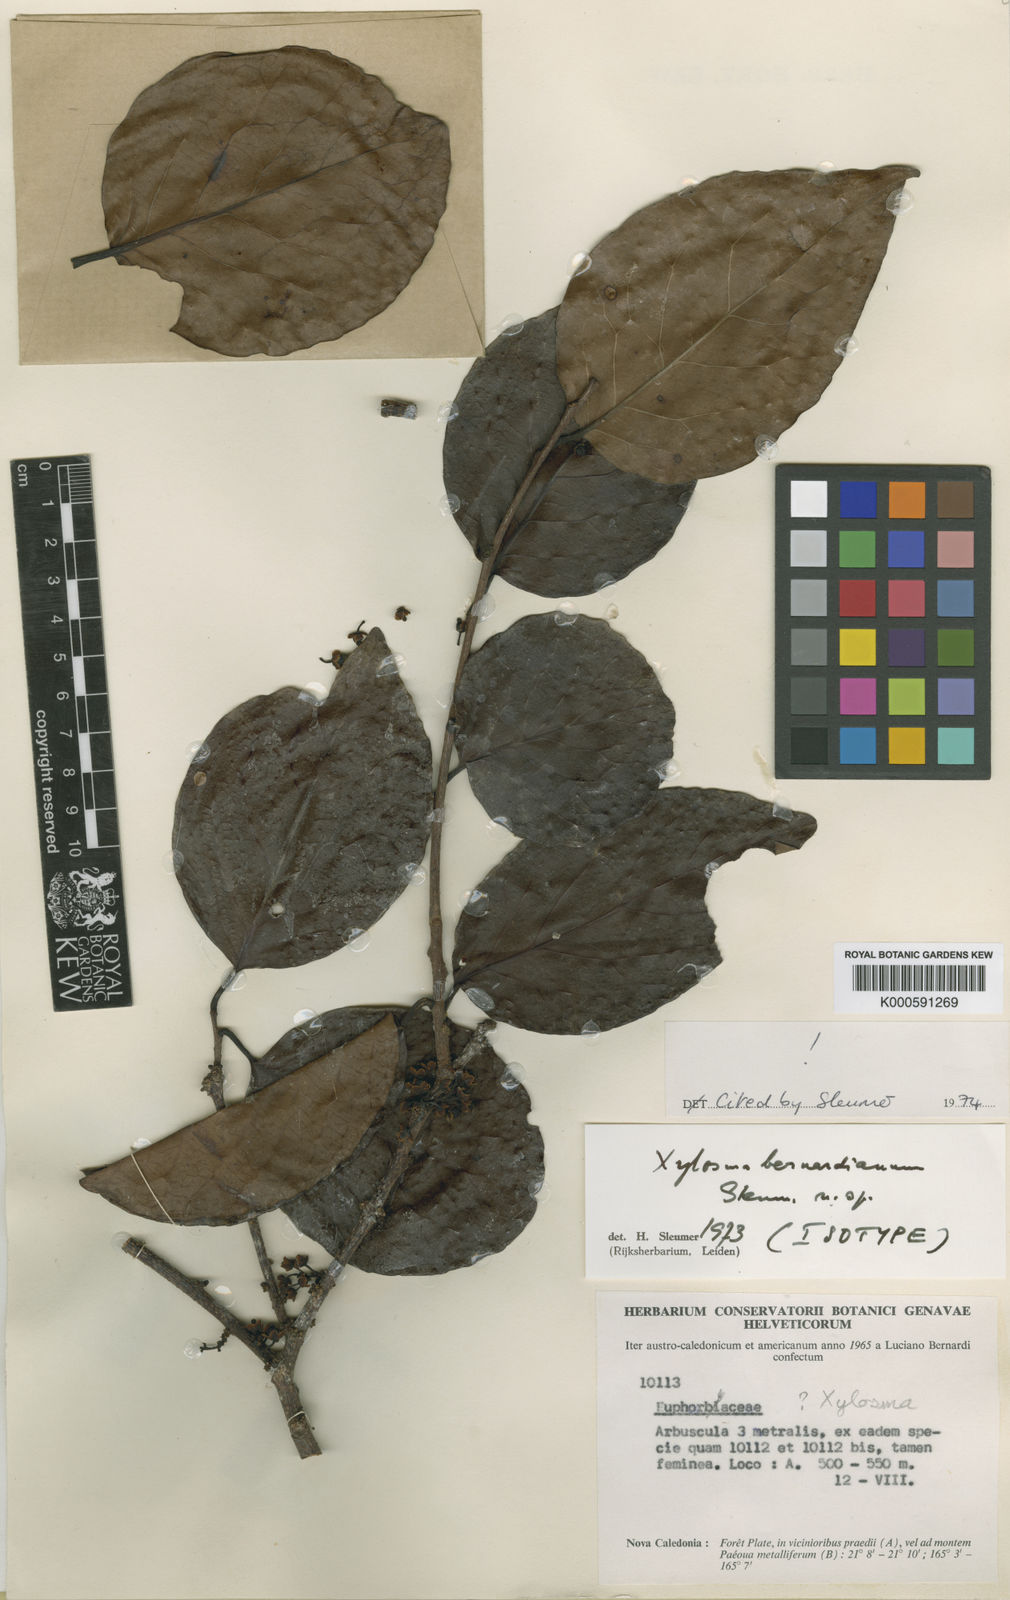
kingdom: Plantae
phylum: Tracheophyta
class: Magnoliopsida
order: Malpighiales
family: Salicaceae
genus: Xylosma
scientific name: Xylosma bernardiana
